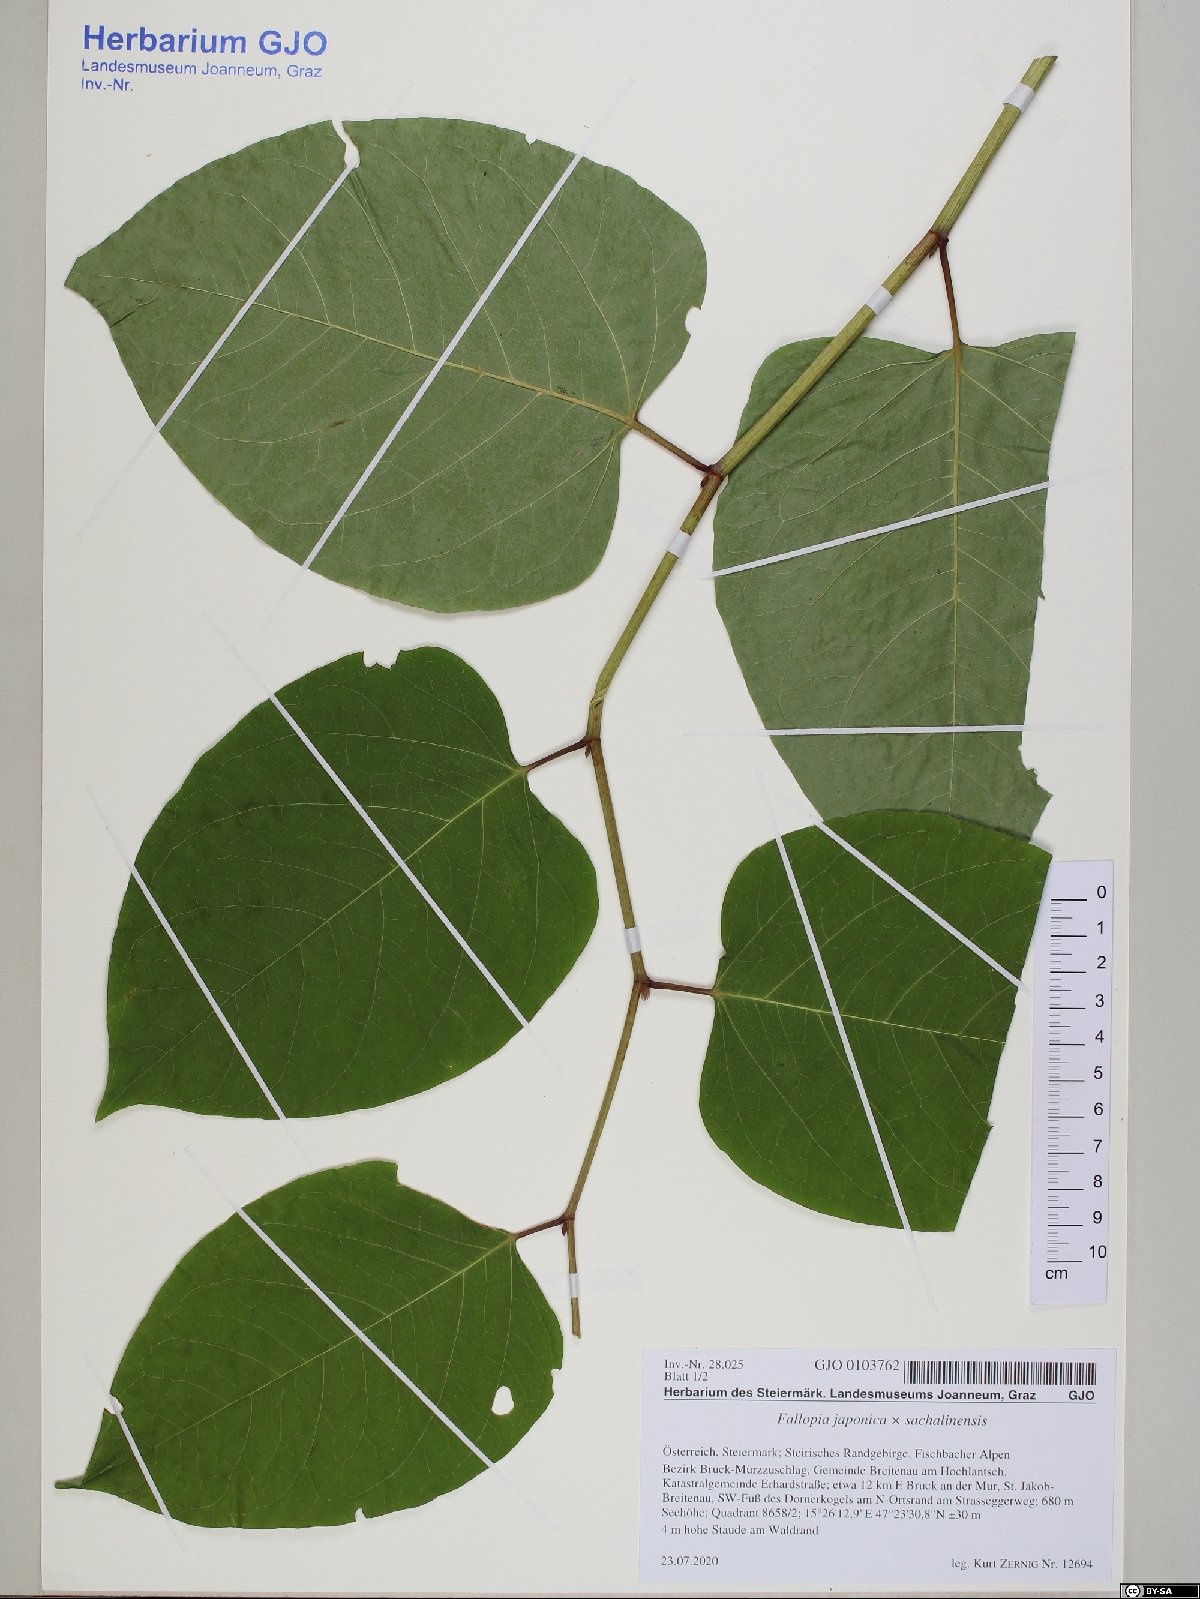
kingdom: Plantae
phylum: Tracheophyta
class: Magnoliopsida
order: Caryophyllales
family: Polygonaceae
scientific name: Polygonaceae
